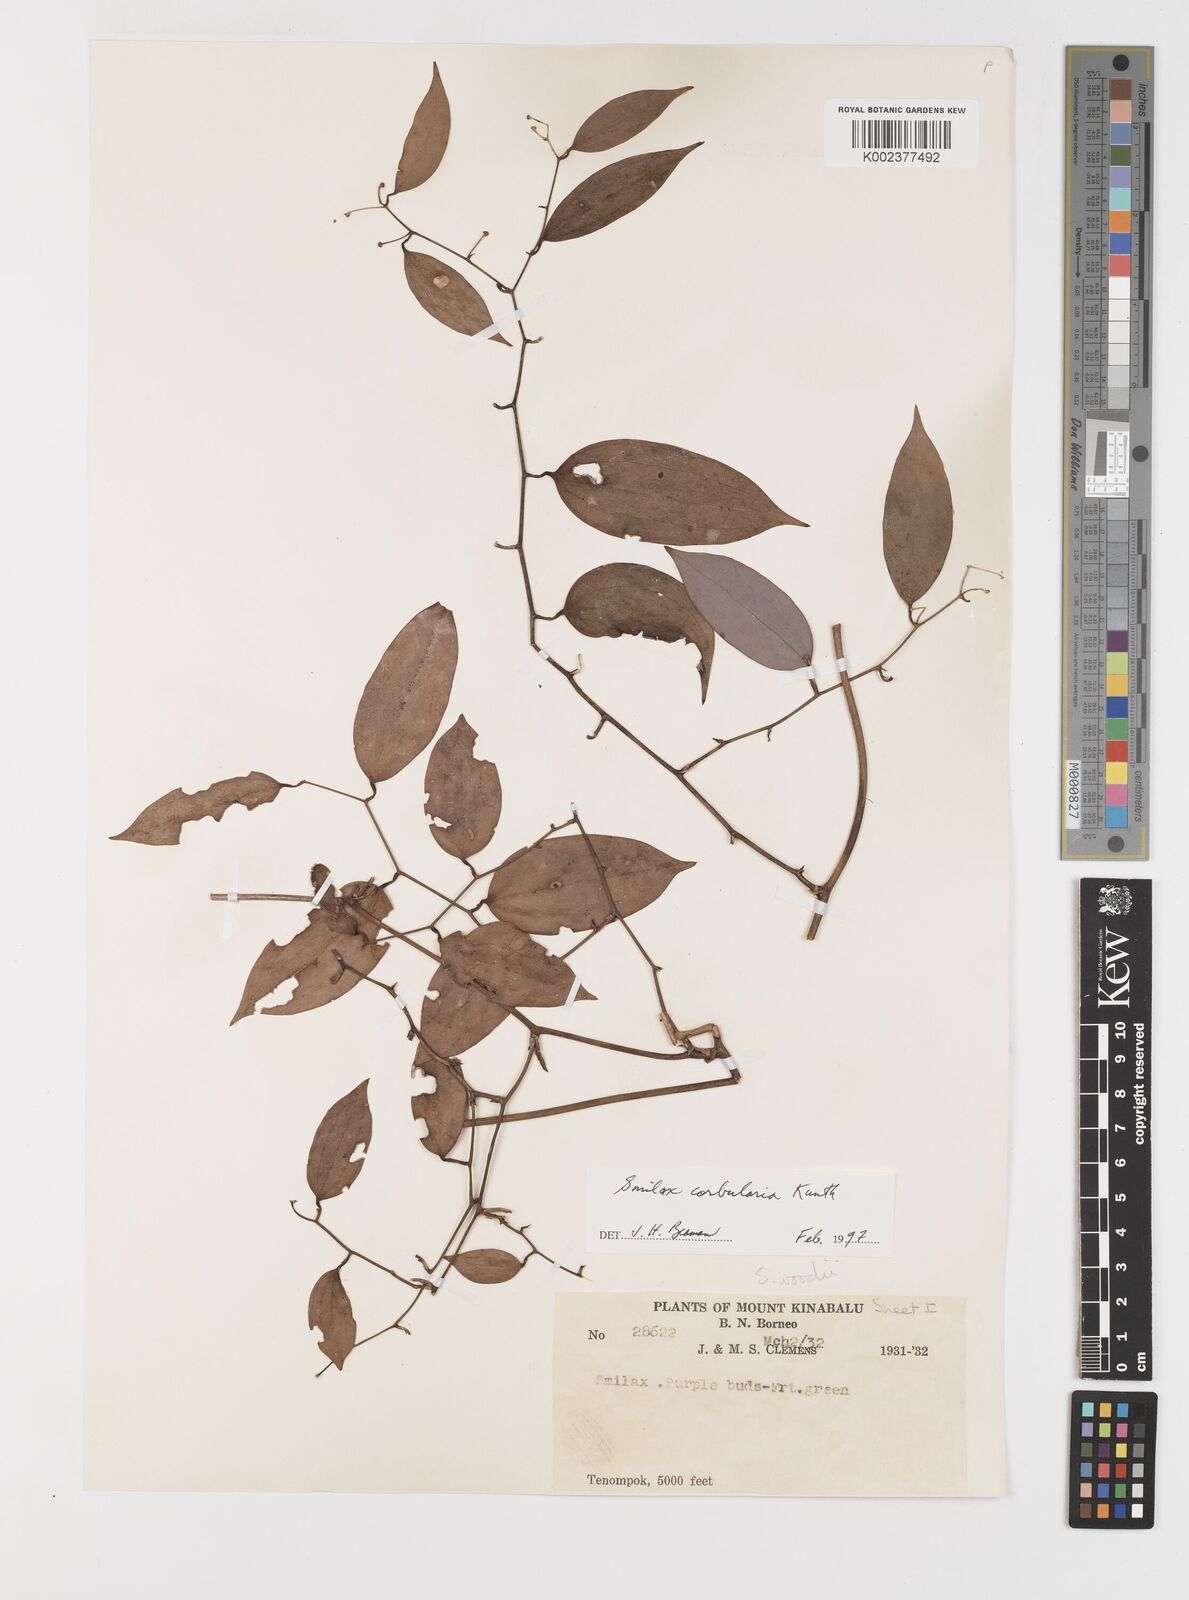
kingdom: Plantae
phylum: Tracheophyta
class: Liliopsida
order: Liliales
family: Smilacaceae
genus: Smilax
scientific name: Smilax corbularia
